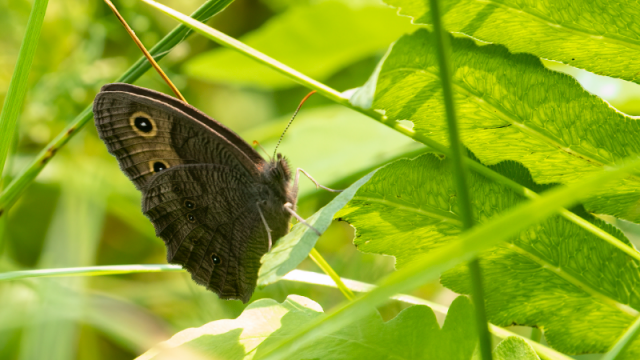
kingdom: Animalia
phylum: Arthropoda
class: Insecta
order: Lepidoptera
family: Nymphalidae
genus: Cercyonis
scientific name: Cercyonis pegala
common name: Common Wood-Nymph
